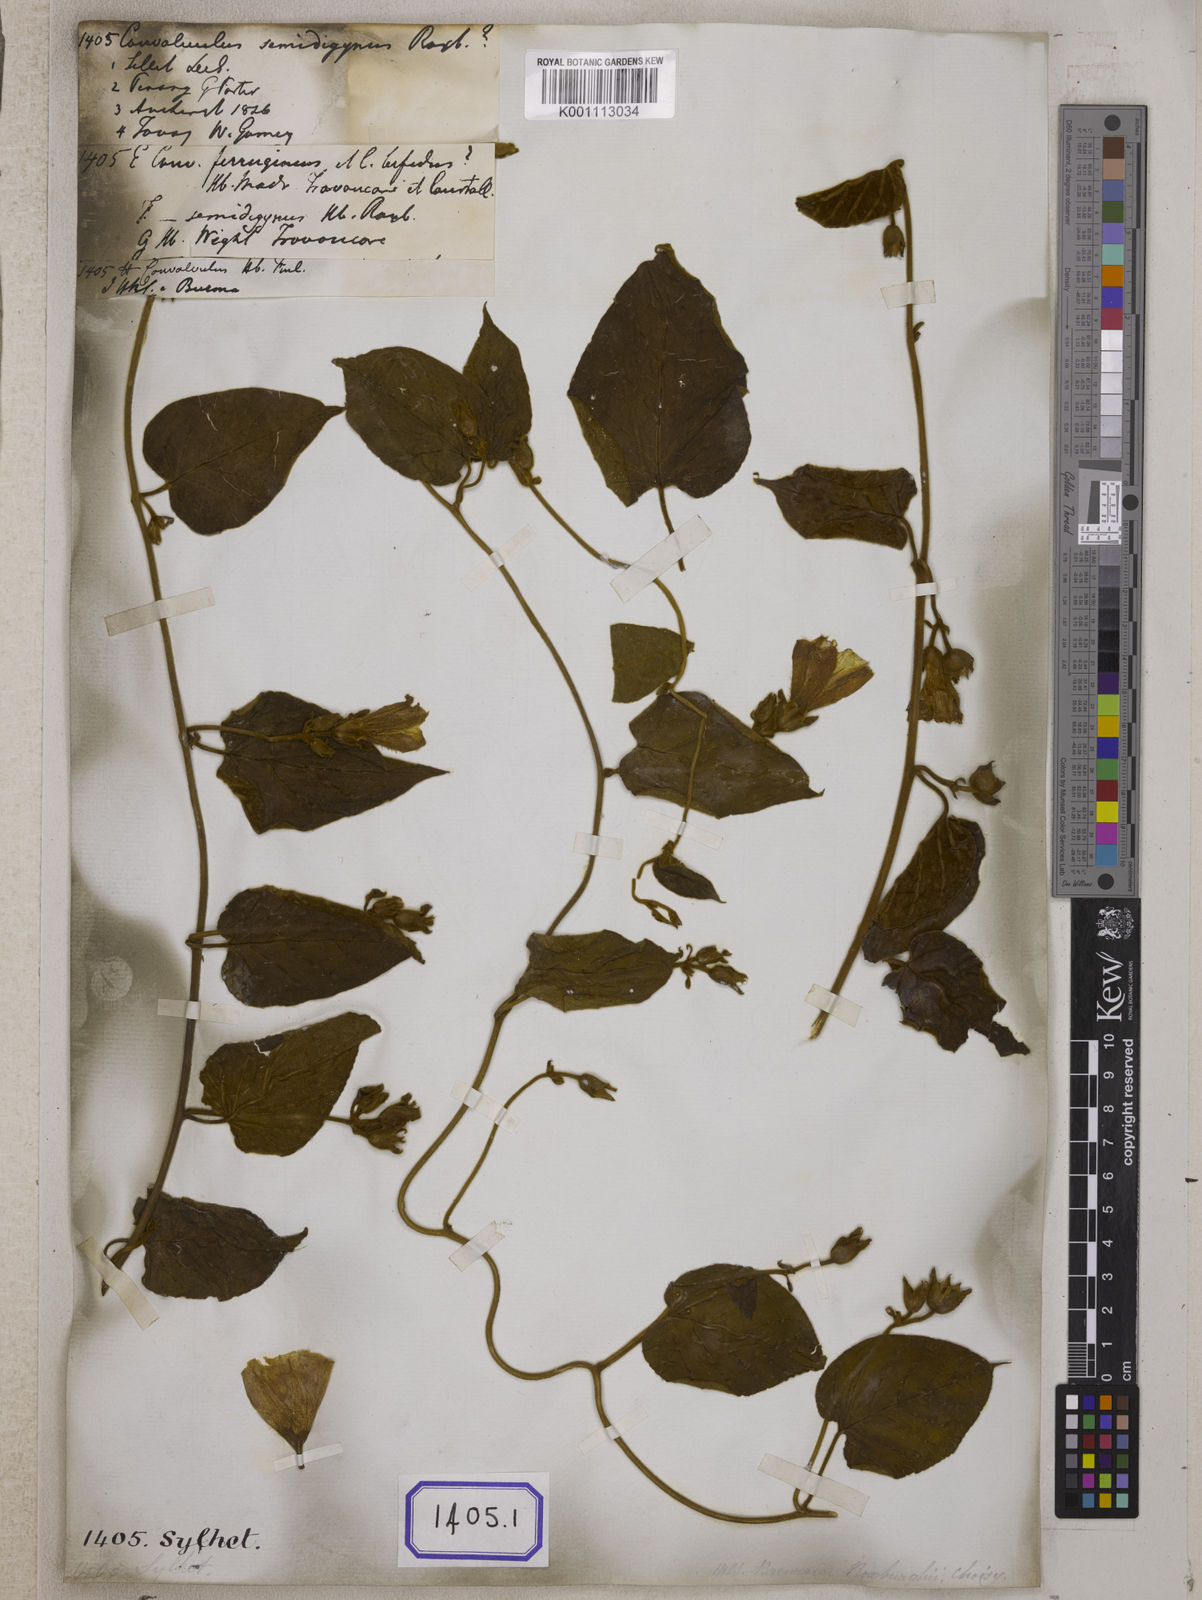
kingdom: Plantae
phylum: Tracheophyta
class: Magnoliopsida
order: Solanales
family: Convolvulaceae
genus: Bonamia
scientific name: Bonamia semidigyna
